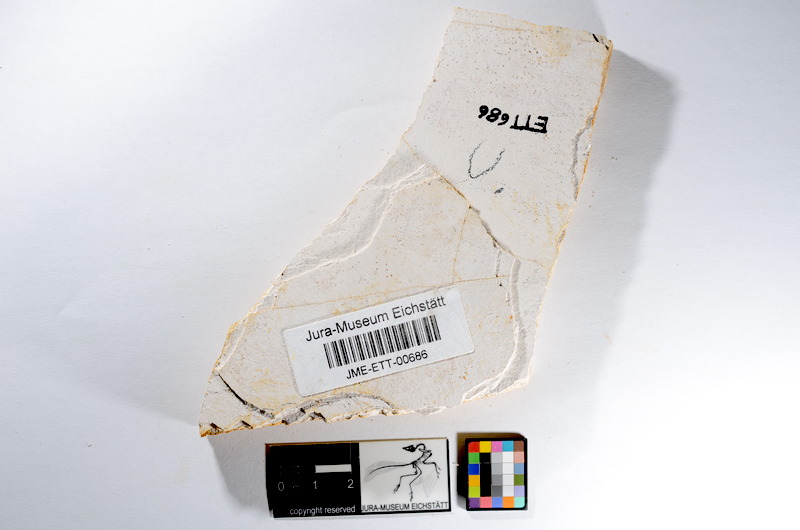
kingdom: Animalia
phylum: Chordata
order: Salmoniformes
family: Orthogonikleithridae
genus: Orthogonikleithrus
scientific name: Orthogonikleithrus hoelli
